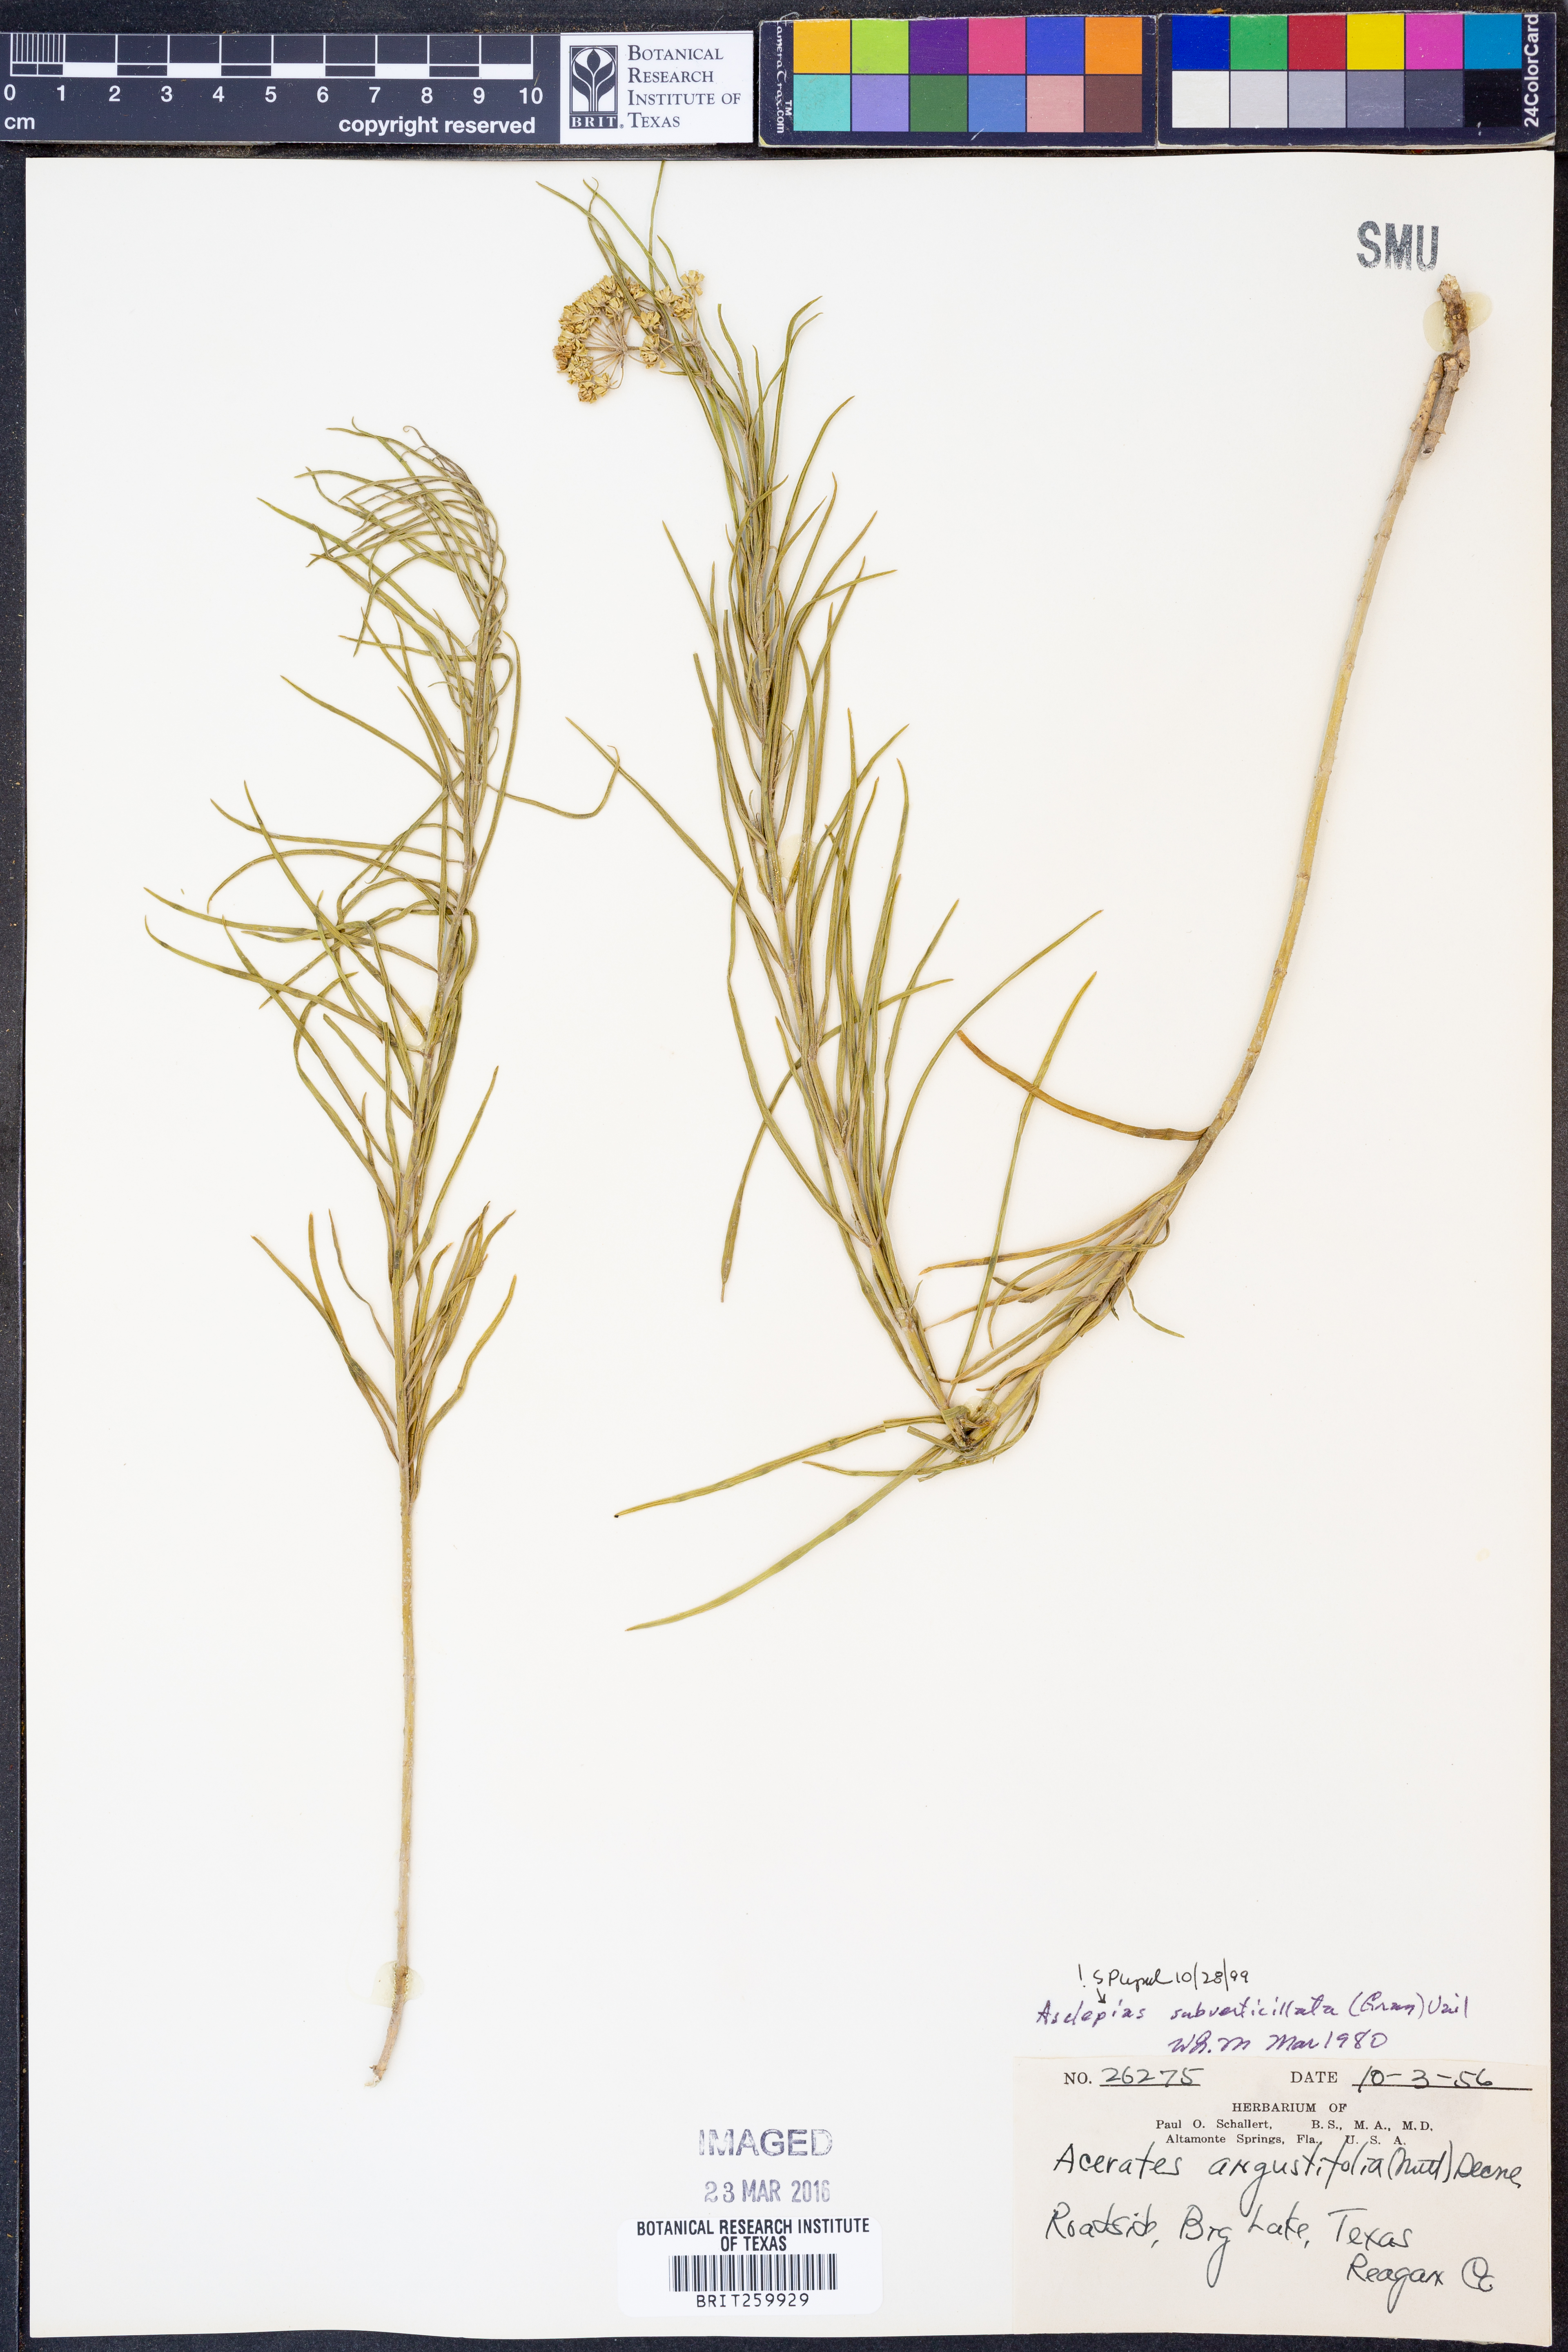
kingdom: Plantae
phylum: Tracheophyta
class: Magnoliopsida
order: Gentianales
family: Apocynaceae
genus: Asclepias
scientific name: Asclepias subverticillata
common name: Horsetail milkweed
